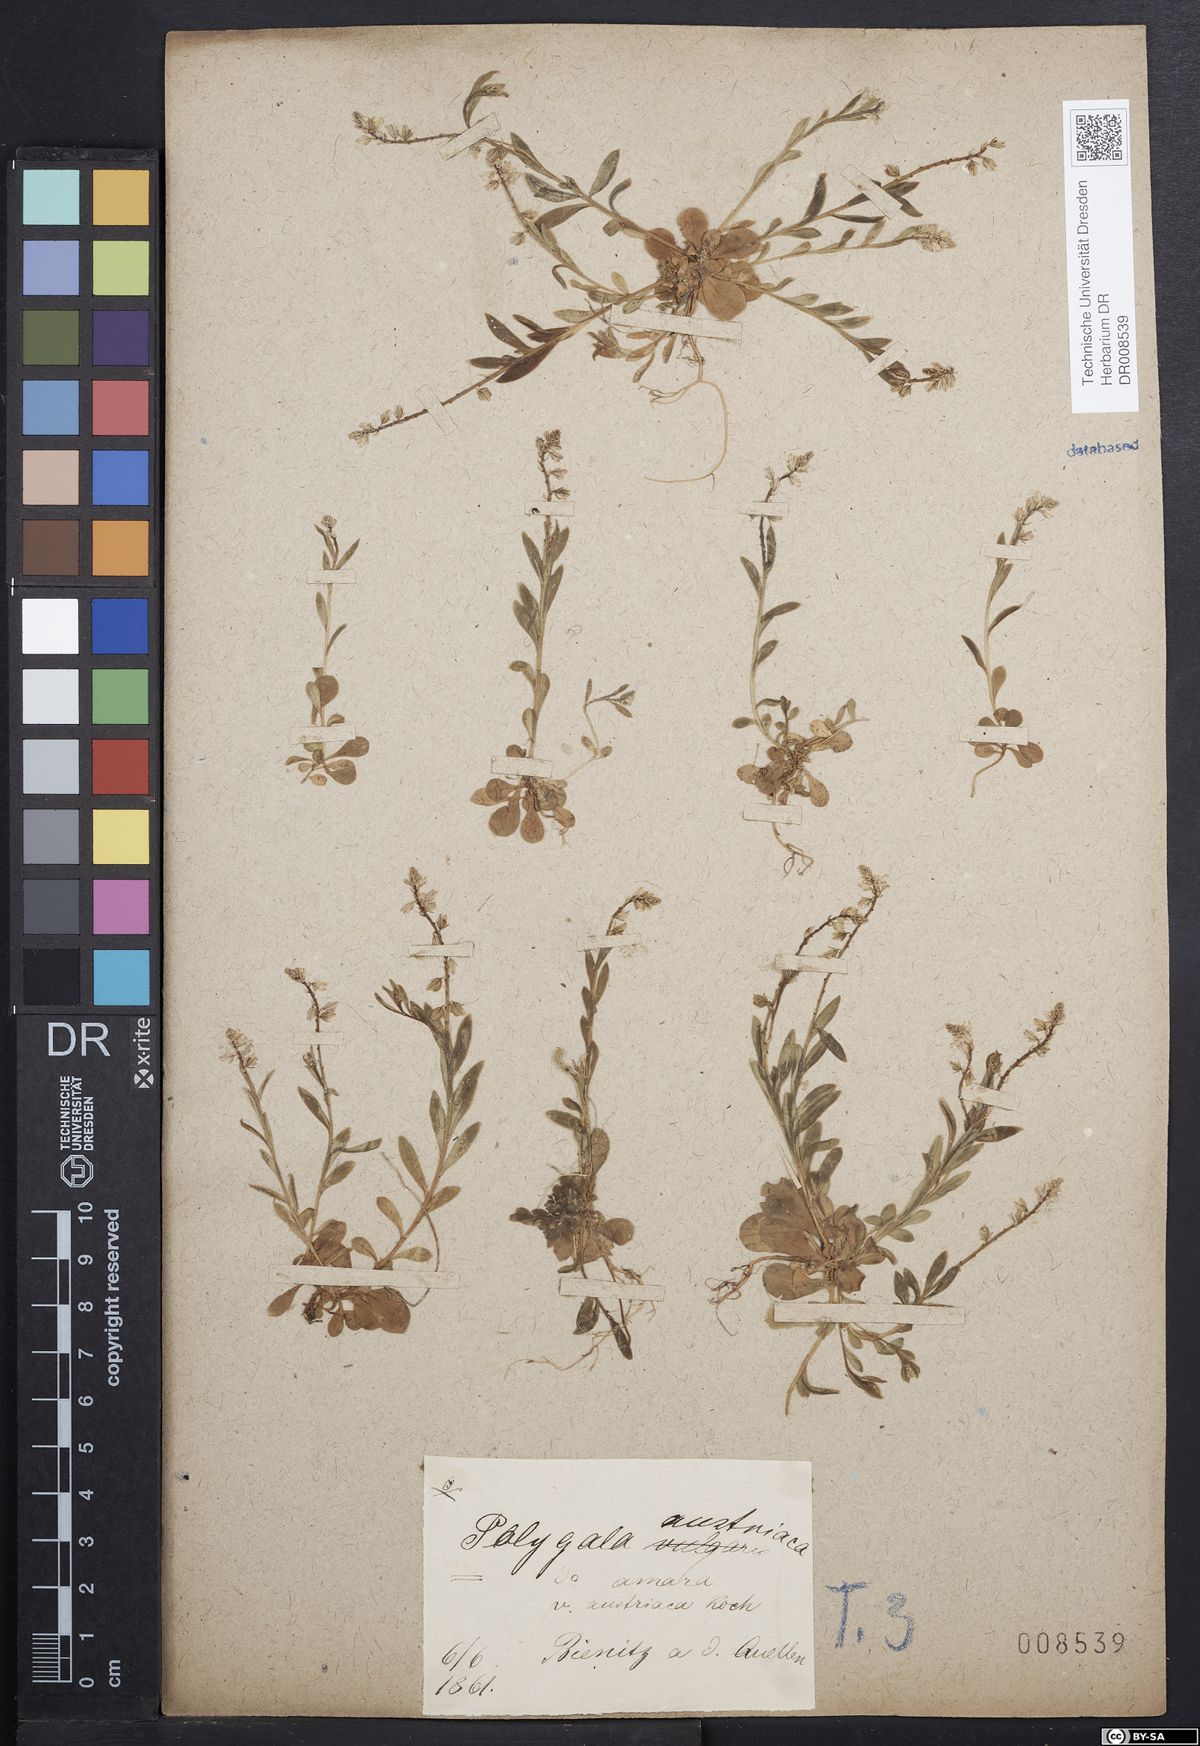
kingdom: Plantae
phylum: Tracheophyta
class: Magnoliopsida
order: Fabales
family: Polygalaceae
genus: Polygala
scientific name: Polygala amarella
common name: Dwarf milkwort
